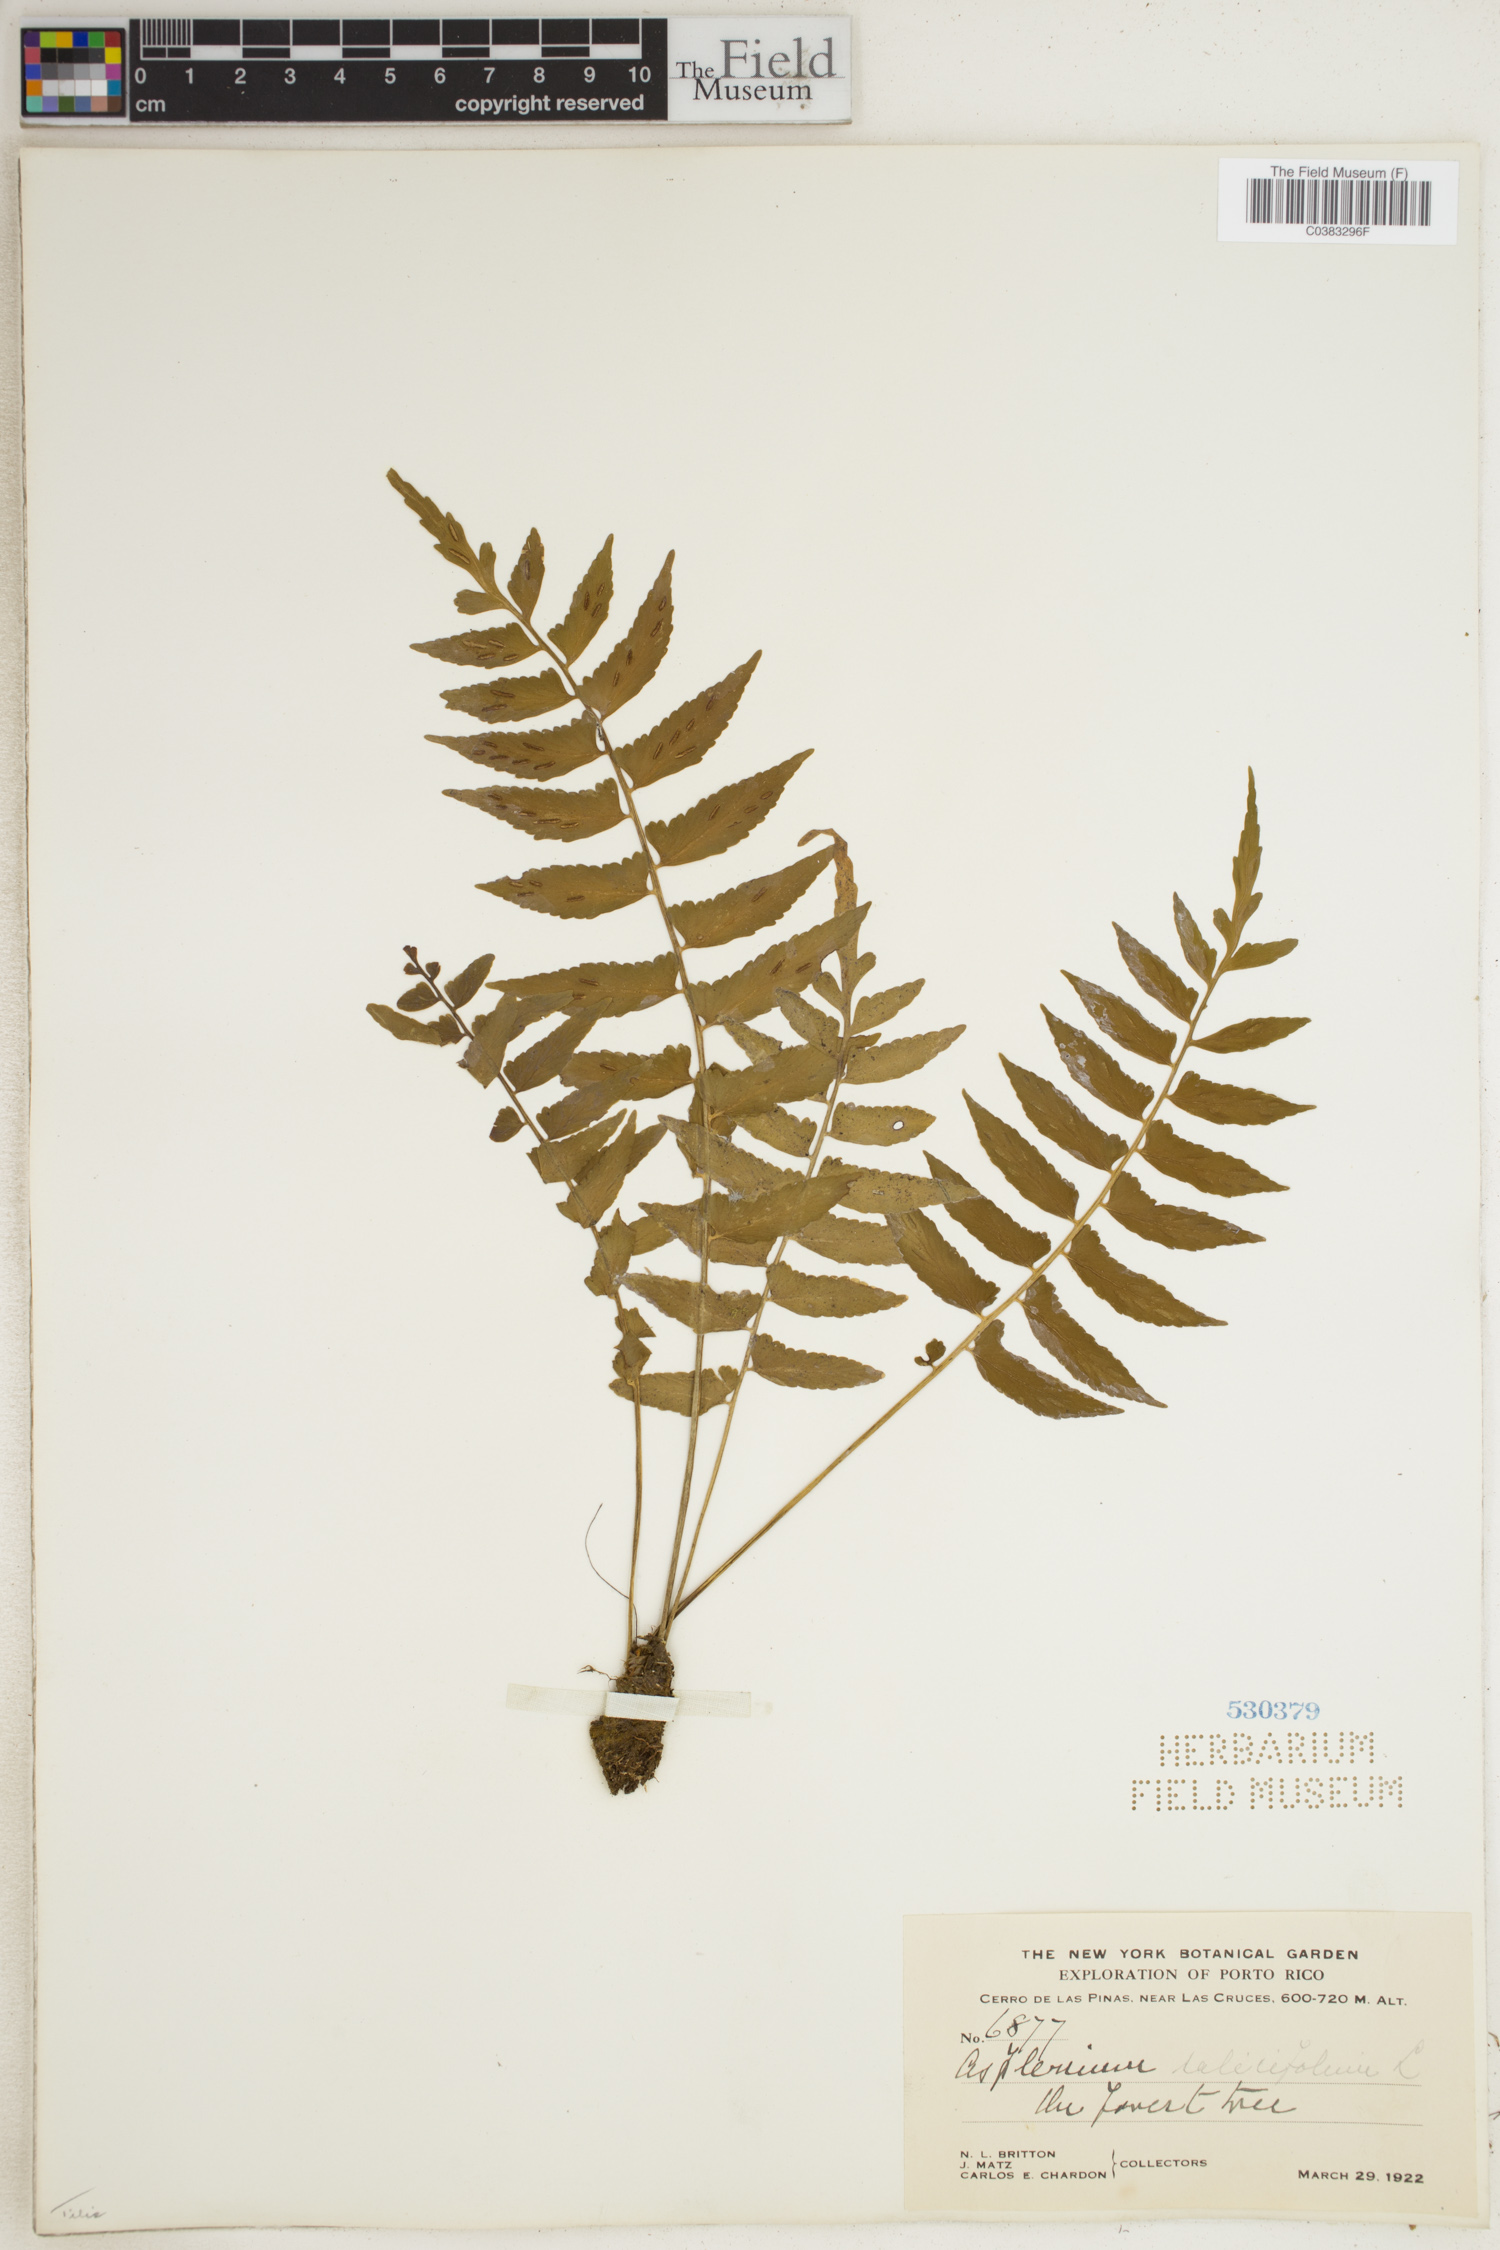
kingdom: Plantae
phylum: Tracheophyta
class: Polypodiopsida
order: Polypodiales
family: Aspleniaceae
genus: Asplenium
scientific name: Asplenium salicifolium
